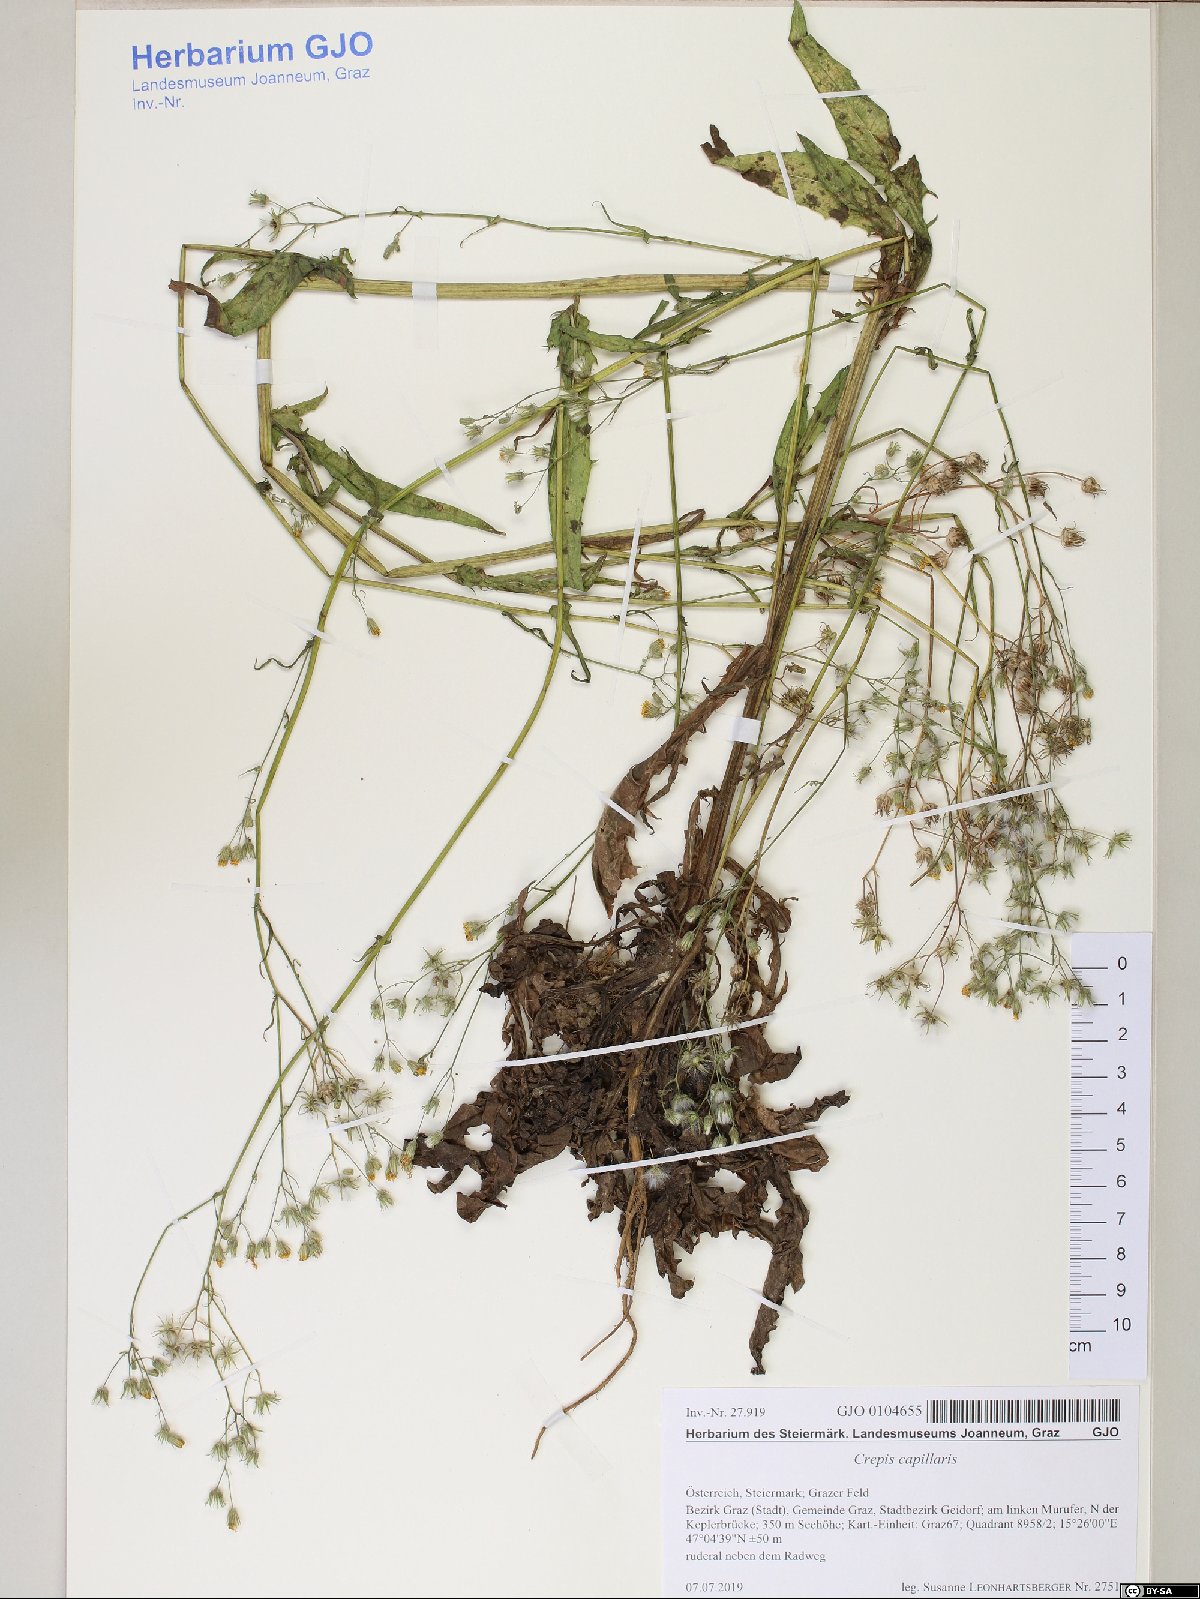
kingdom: Plantae
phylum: Tracheophyta
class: Magnoliopsida
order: Asterales
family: Asteraceae
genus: Crepis
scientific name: Crepis capillaris
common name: Smooth hawksbeard
